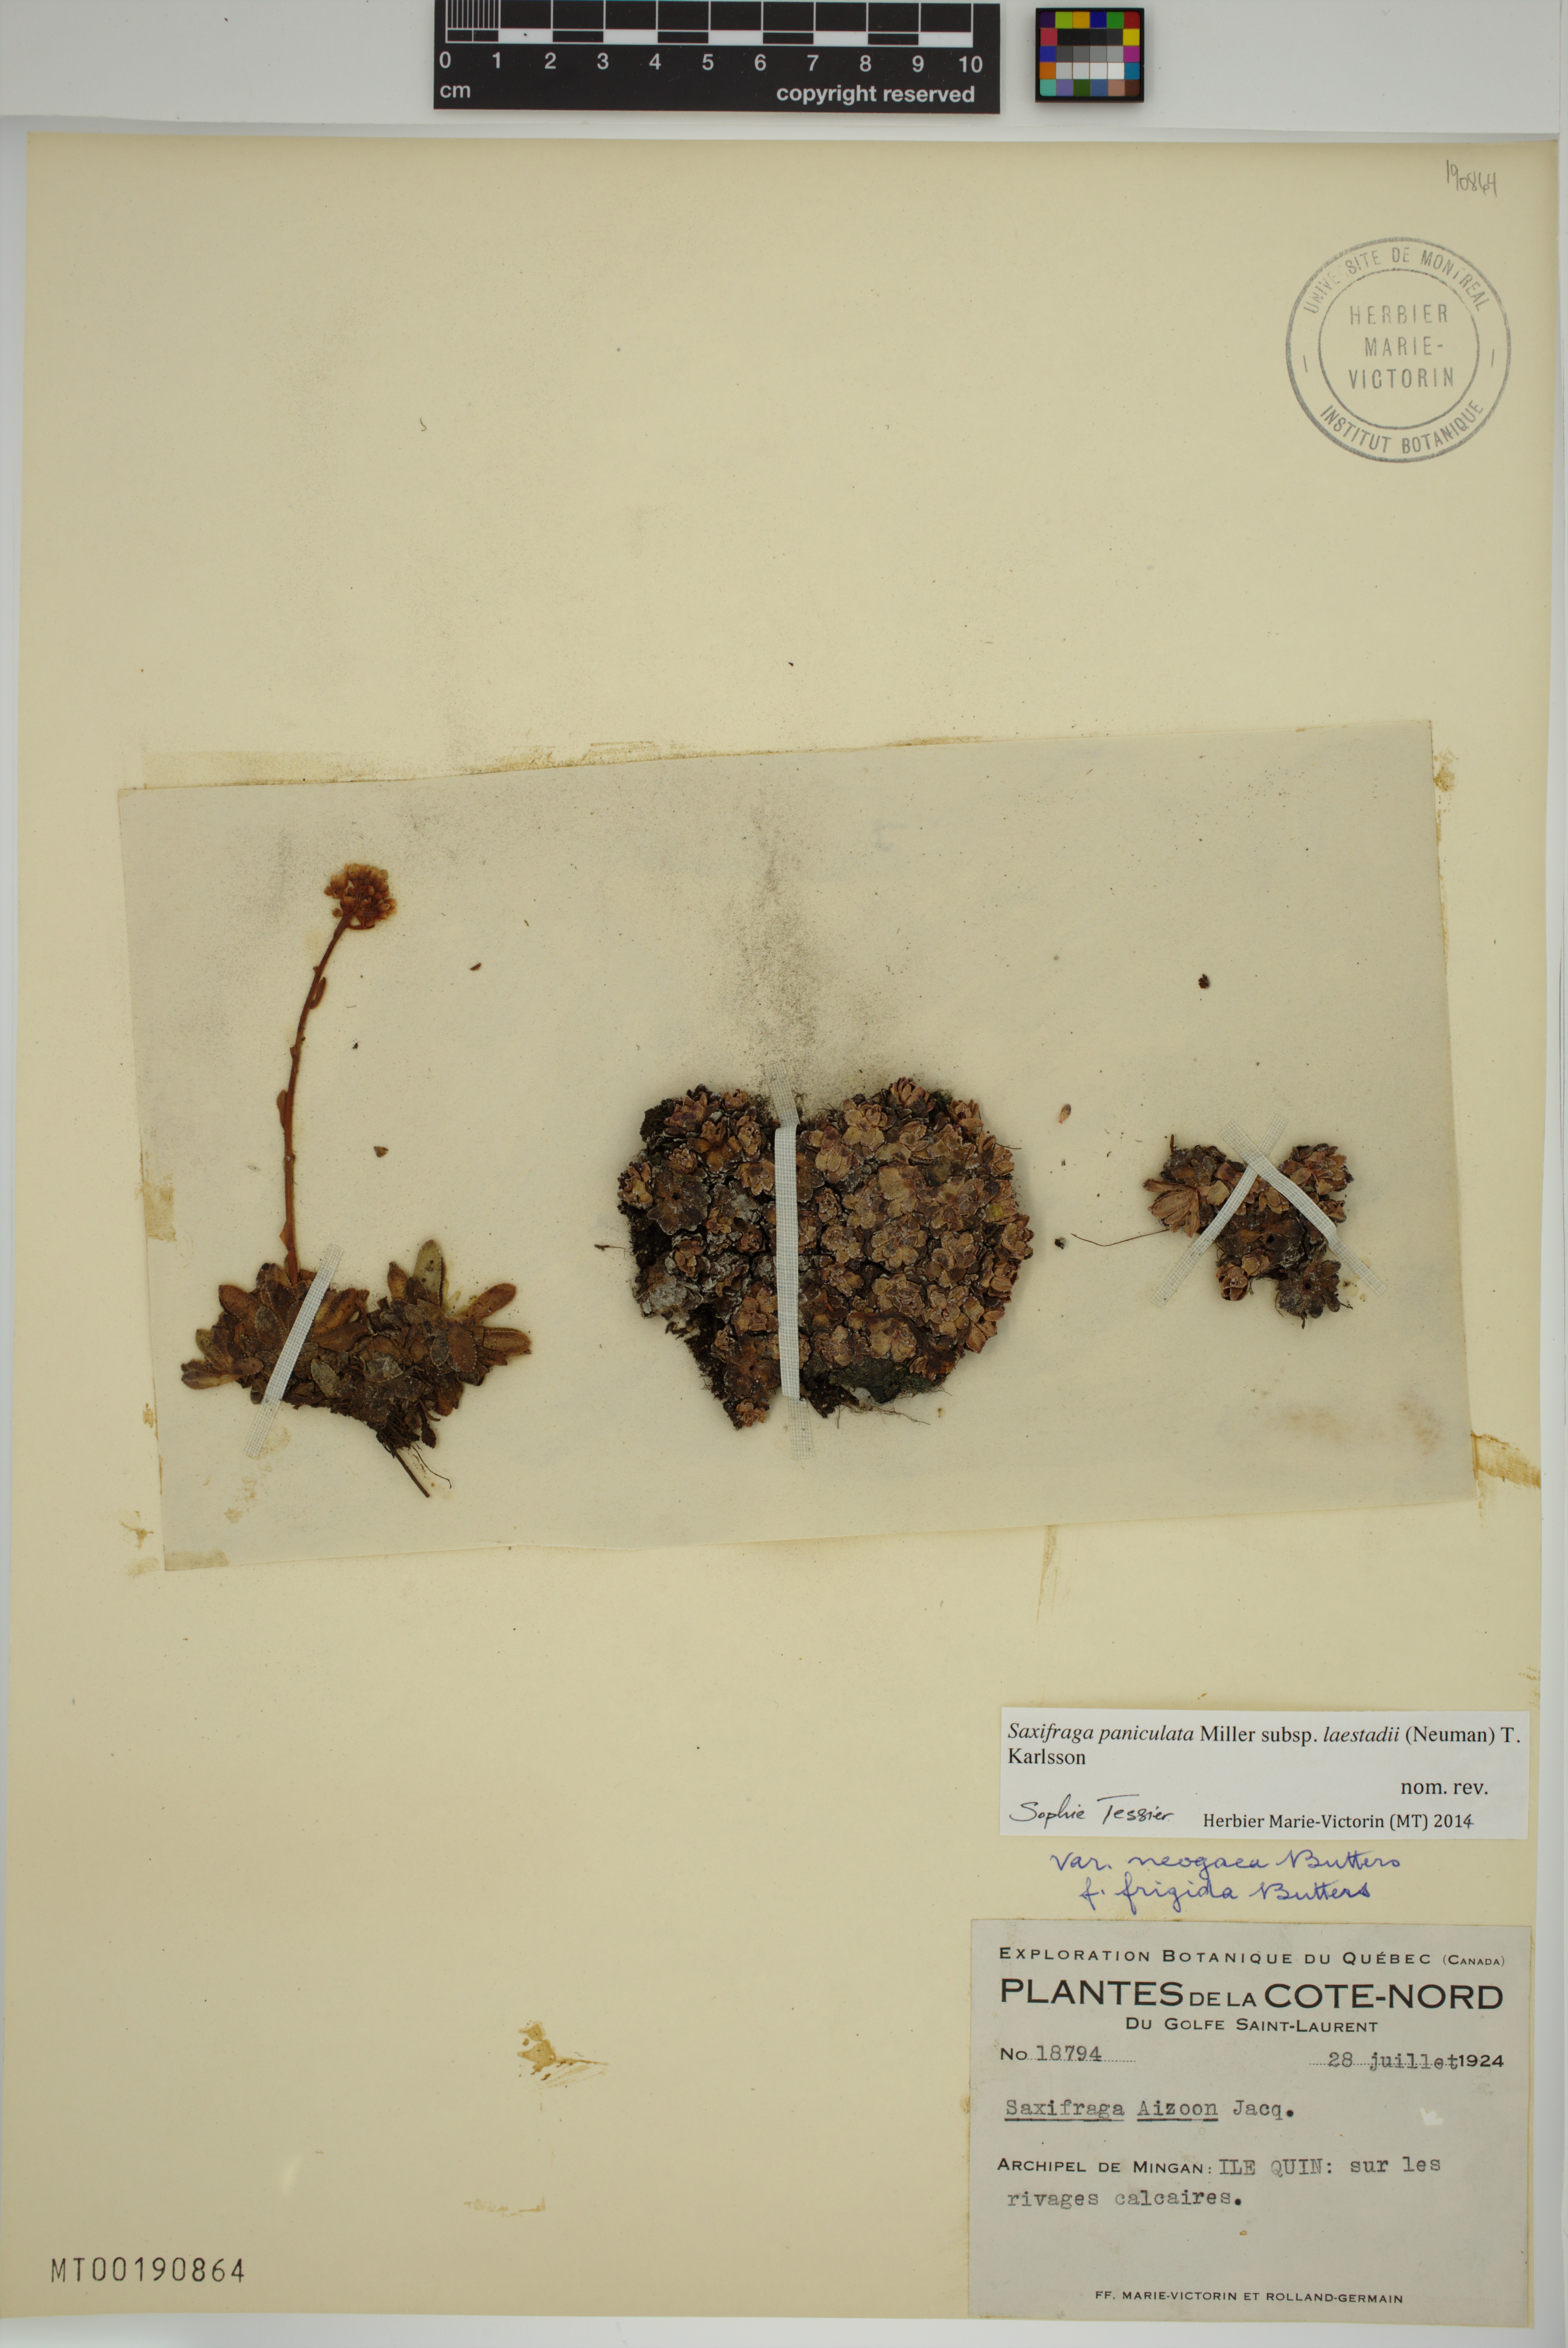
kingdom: Plantae
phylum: Tracheophyta
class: Magnoliopsida
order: Saxifragales
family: Saxifragaceae
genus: Saxifraga
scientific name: Saxifraga paniculata
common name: Livelong saxifrage
